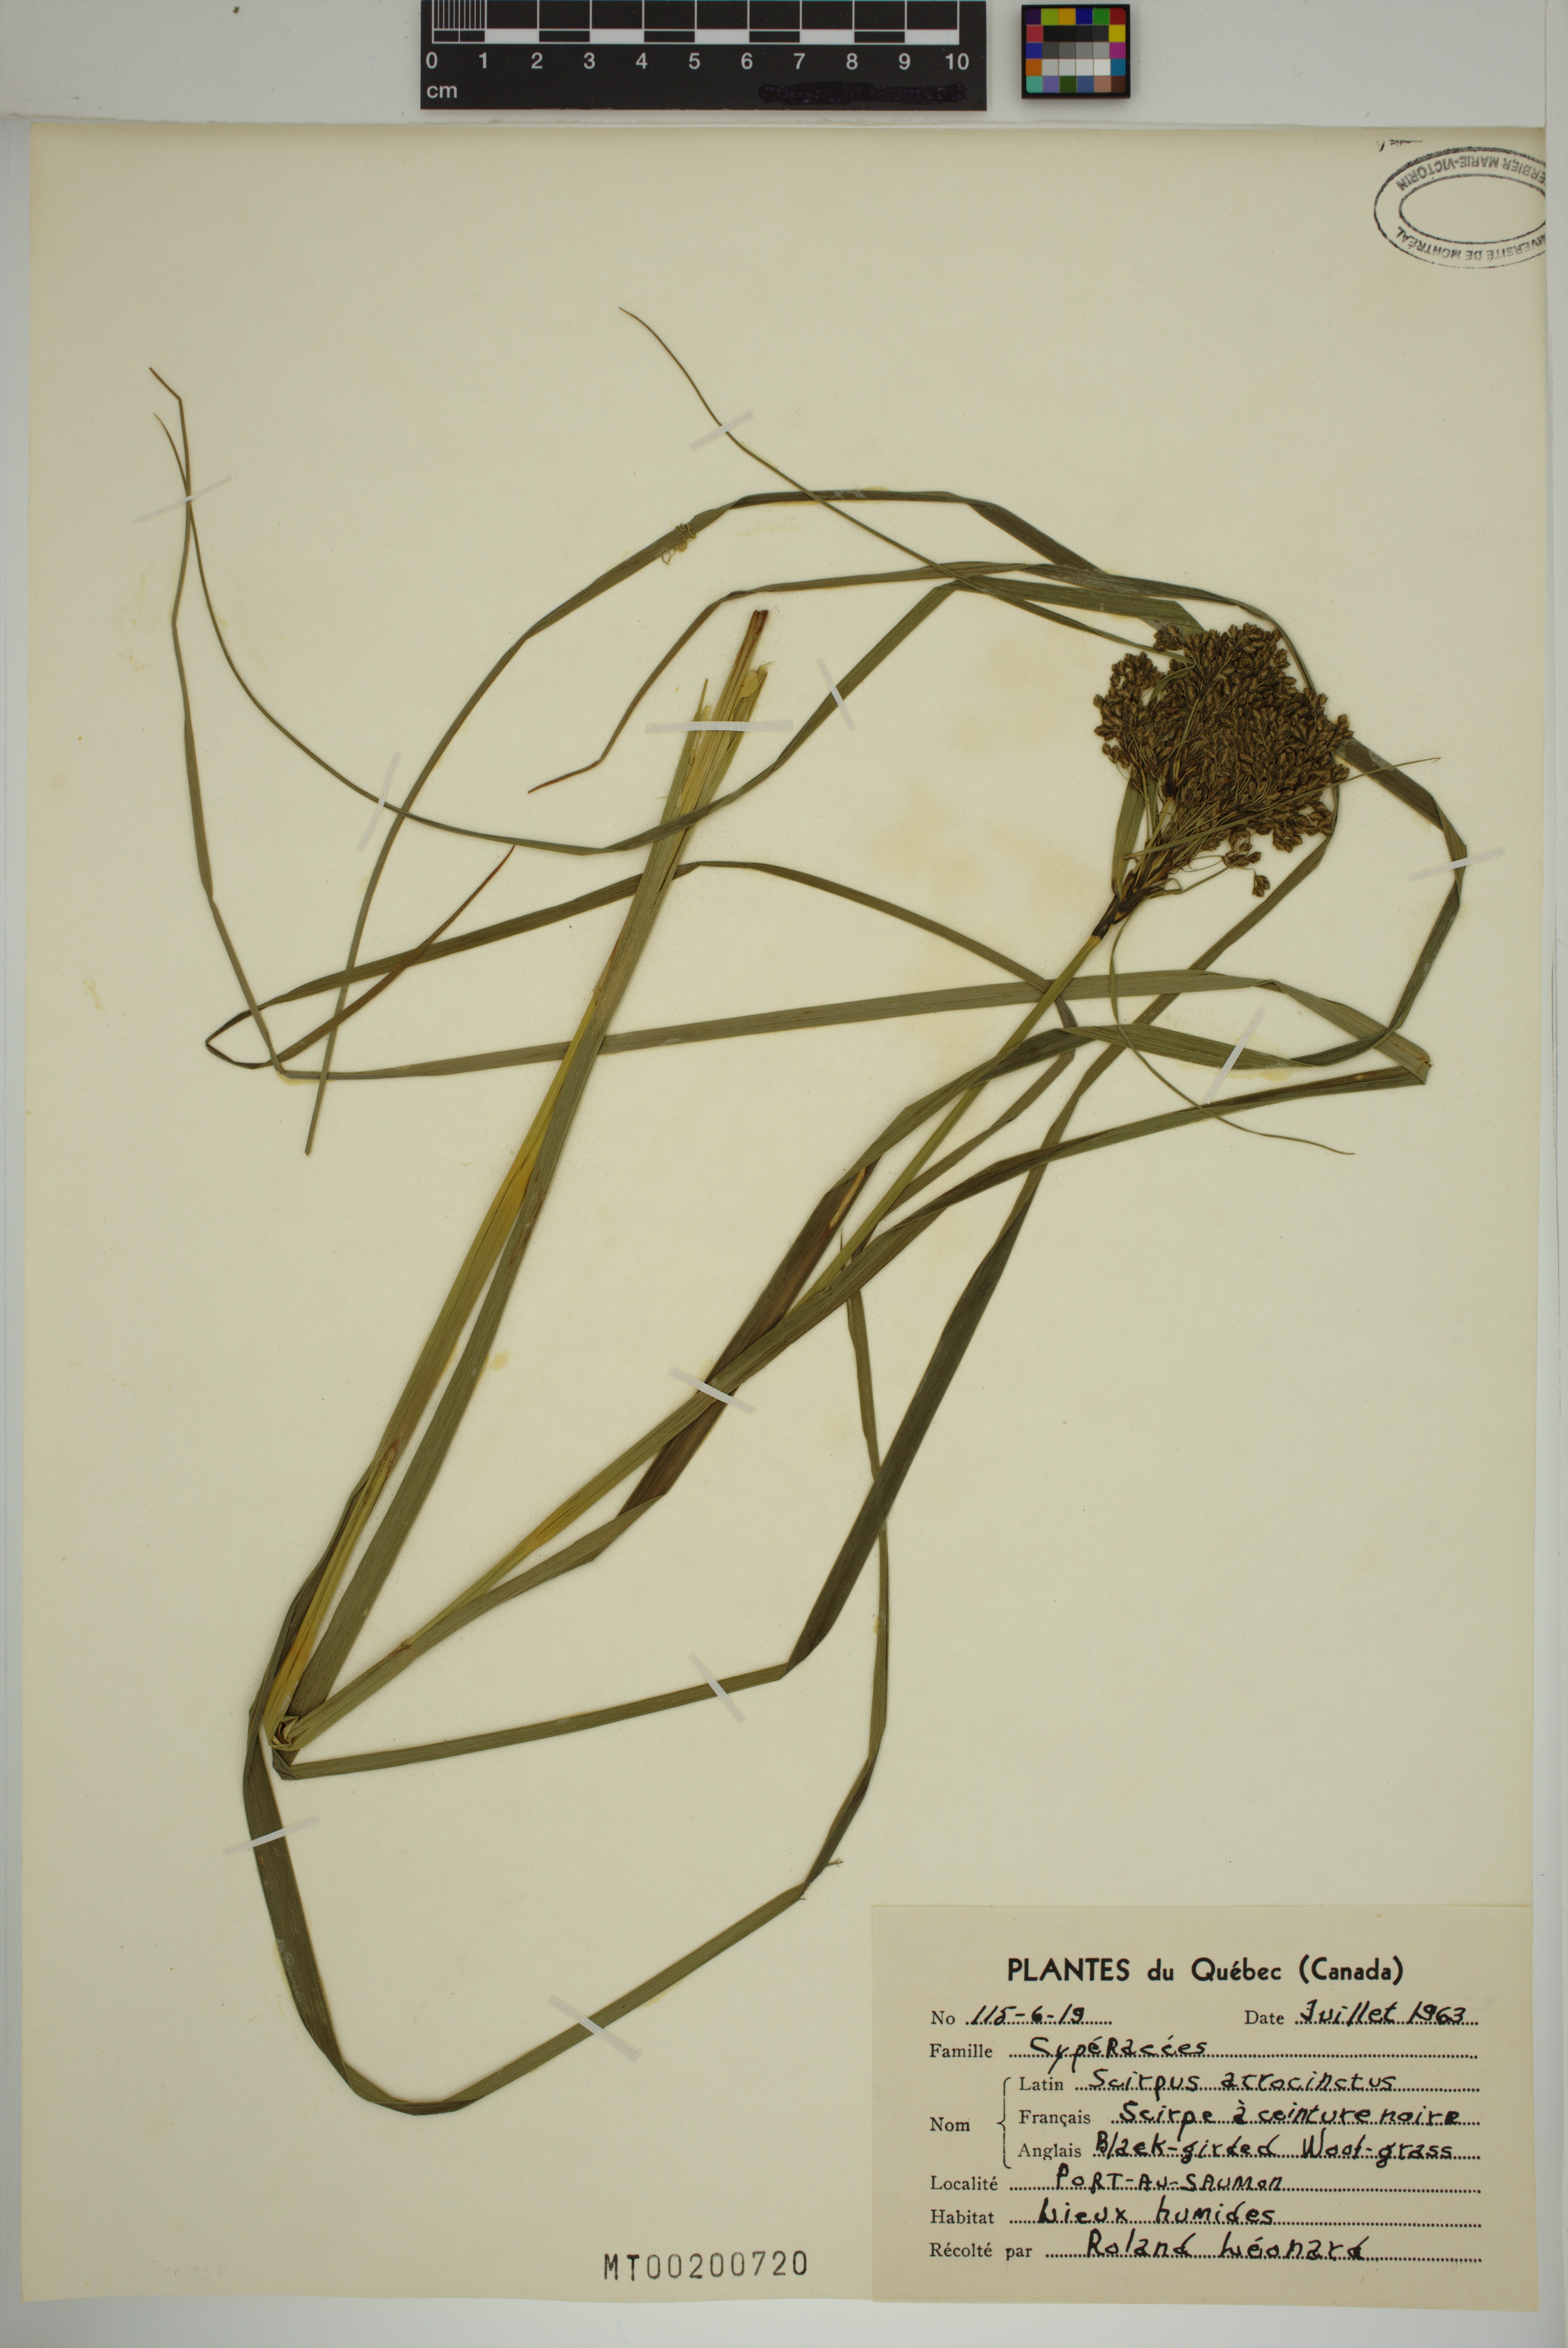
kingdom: Plantae
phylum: Tracheophyta
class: Liliopsida
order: Poales
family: Cyperaceae
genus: Scirpus
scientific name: Scirpus atrocinctus
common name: Black-girdled bulrush
